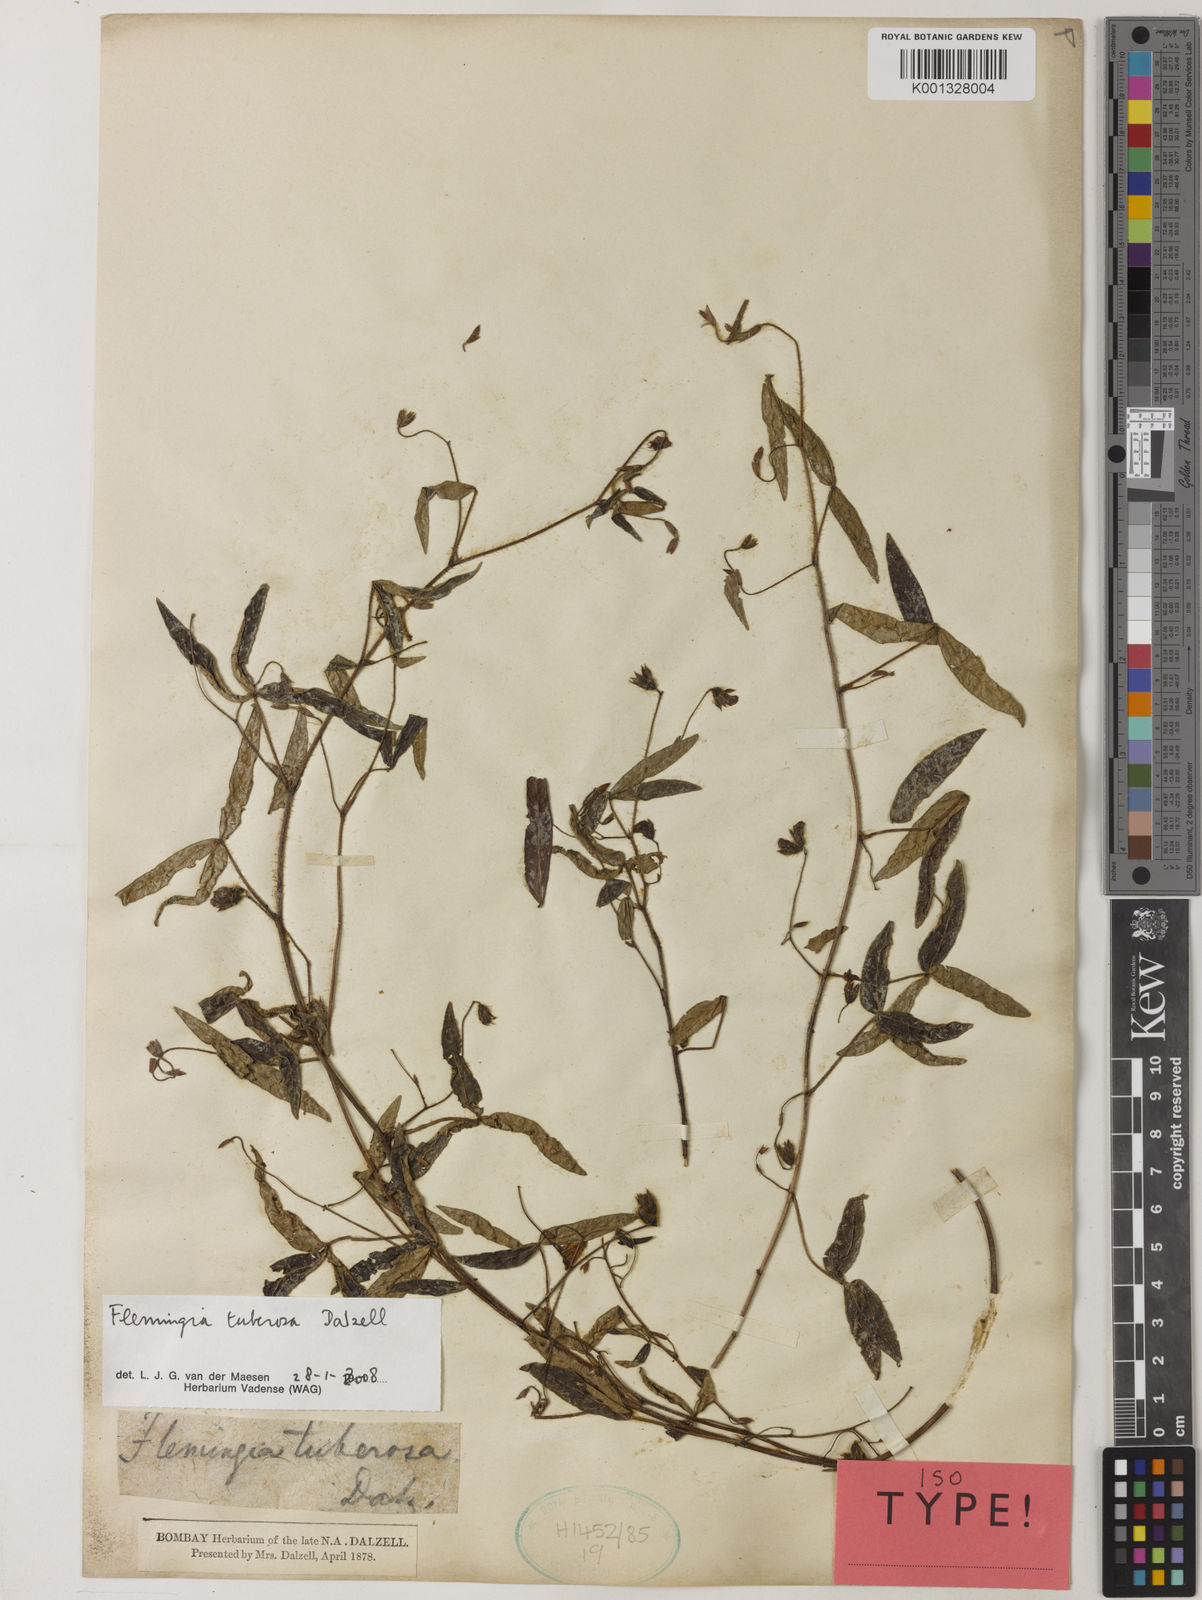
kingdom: Plantae
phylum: Tracheophyta
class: Magnoliopsida
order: Fabales
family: Fabaceae
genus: Flemingia
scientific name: Flemingia tuberosa
